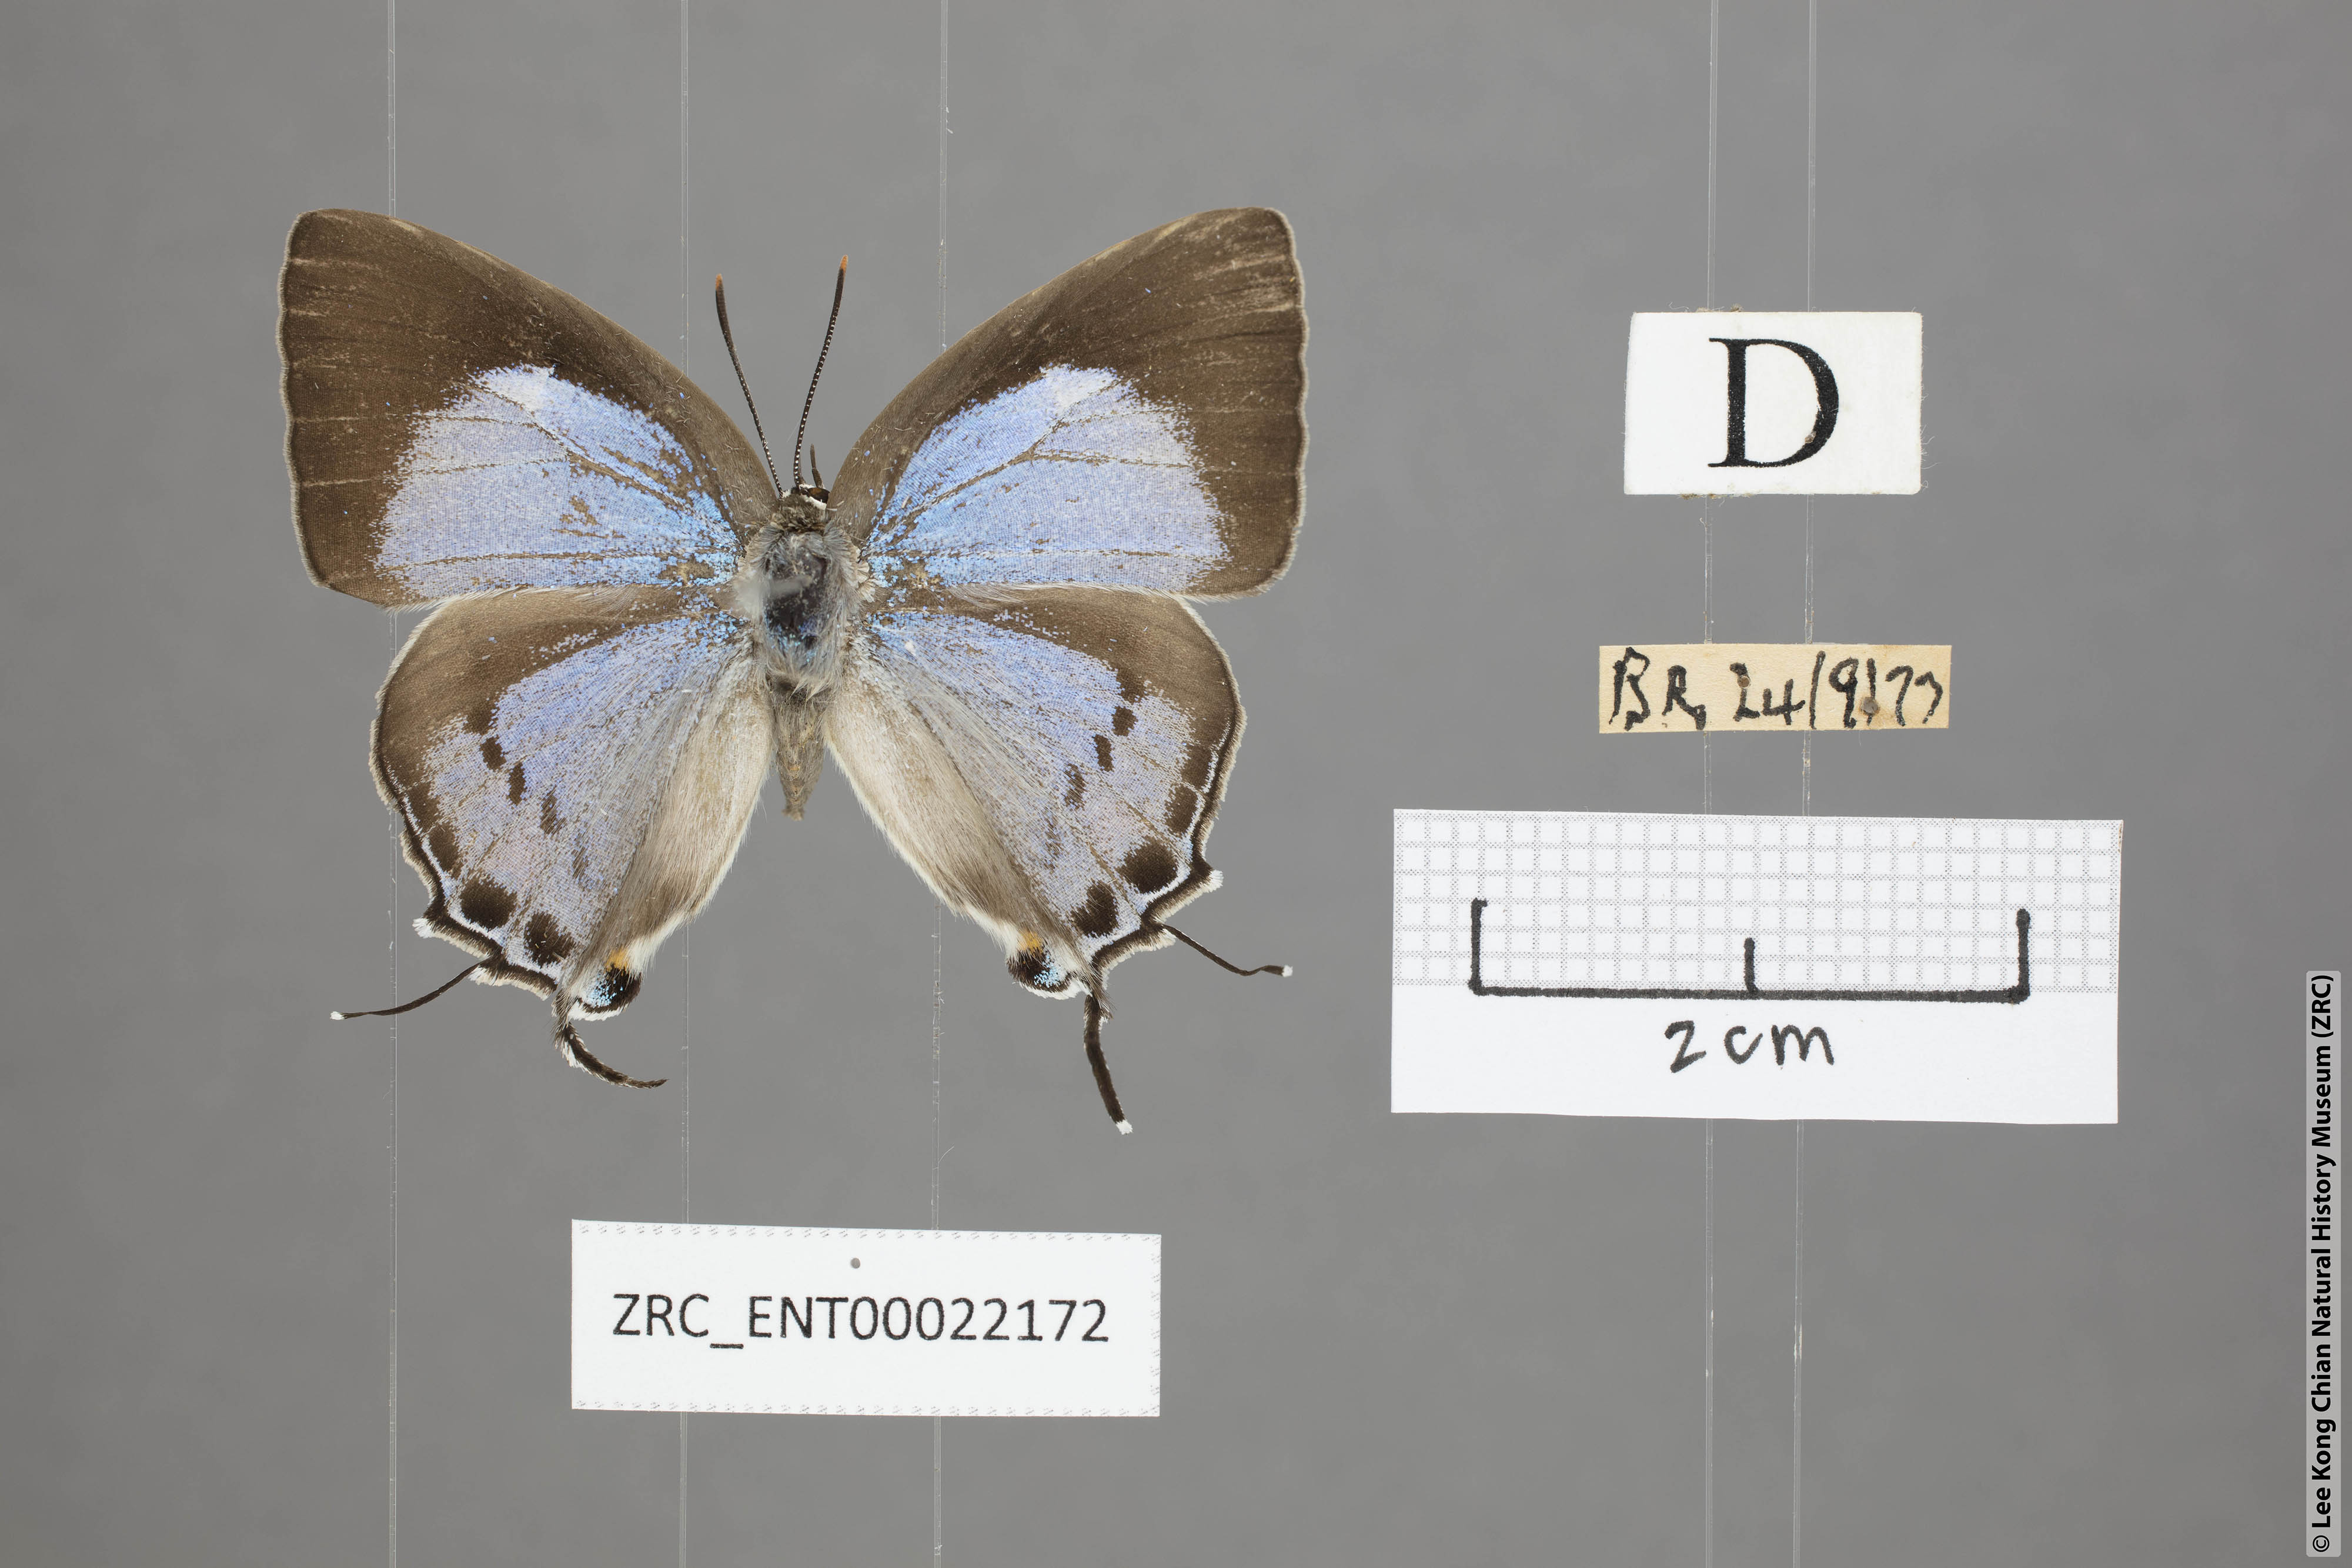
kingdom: Animalia
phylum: Arthropoda
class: Insecta
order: Lepidoptera
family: Lycaenidae
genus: Tajuria
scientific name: Tajuria cippus
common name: Peacock royal
